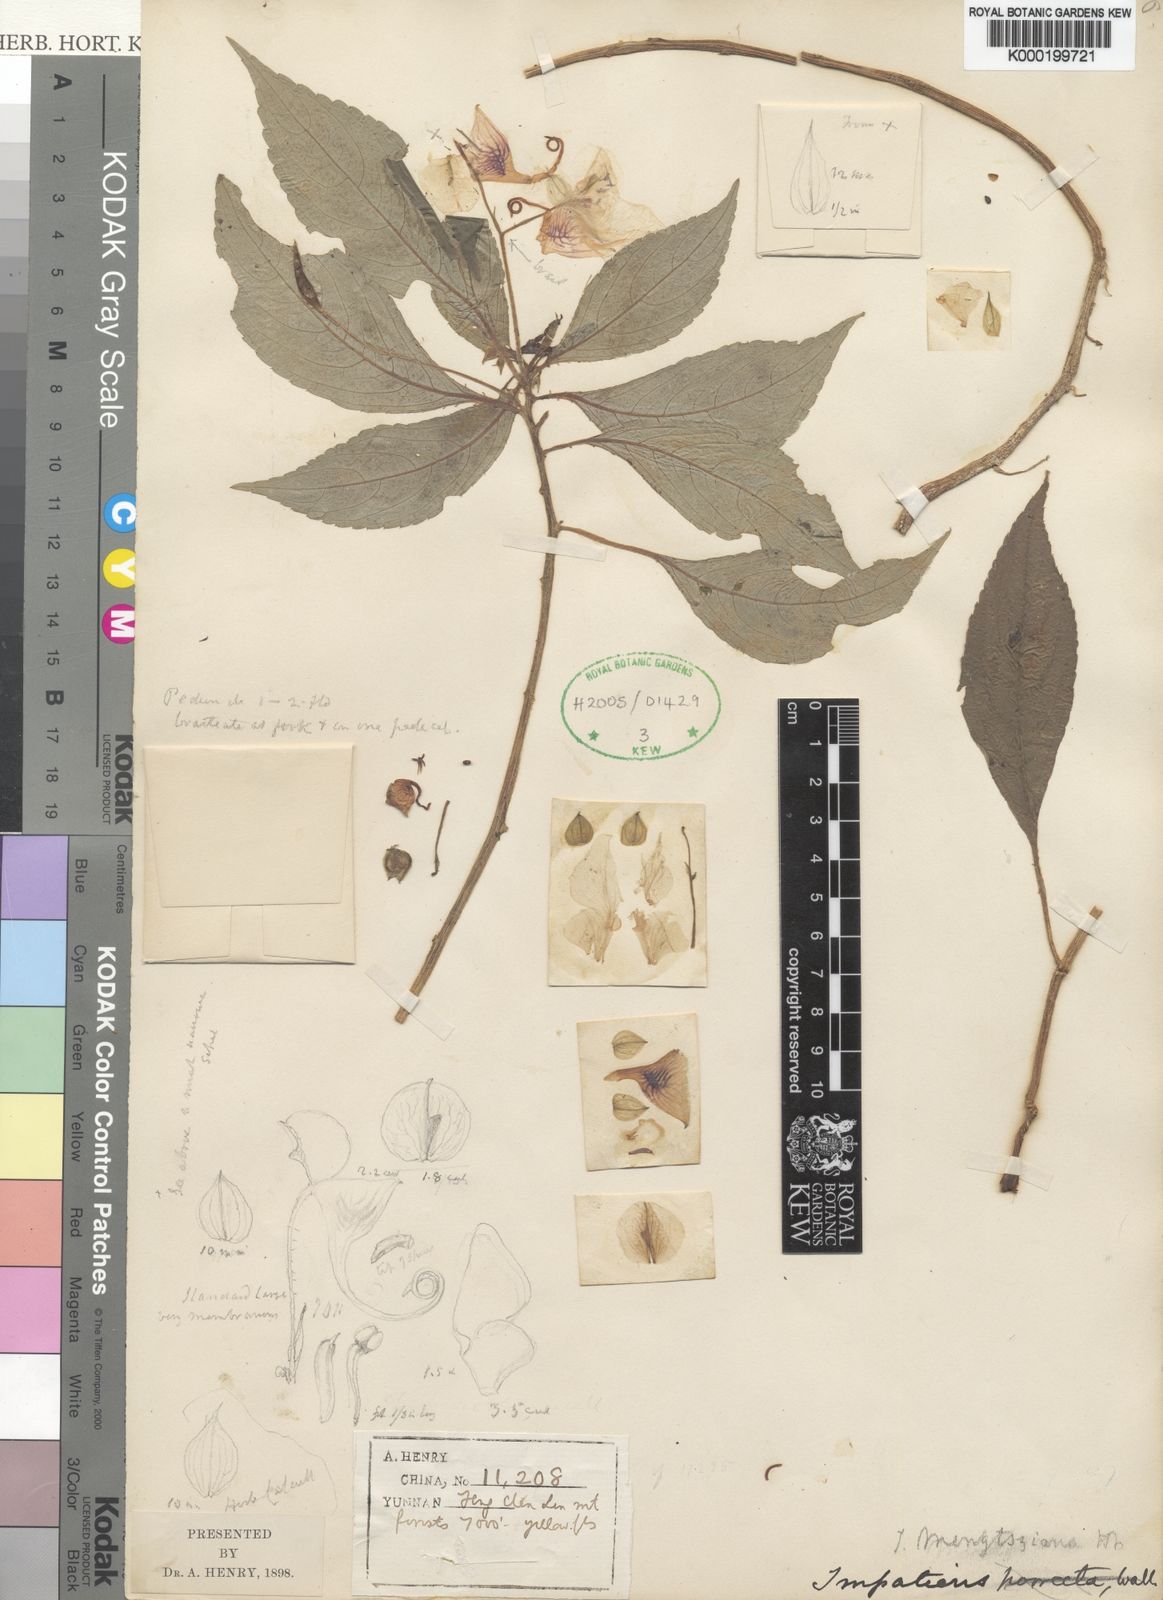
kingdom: Plantae
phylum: Tracheophyta
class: Magnoliopsida
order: Ericales
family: Balsaminaceae
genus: Impatiens
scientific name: Impatiens pulchra
